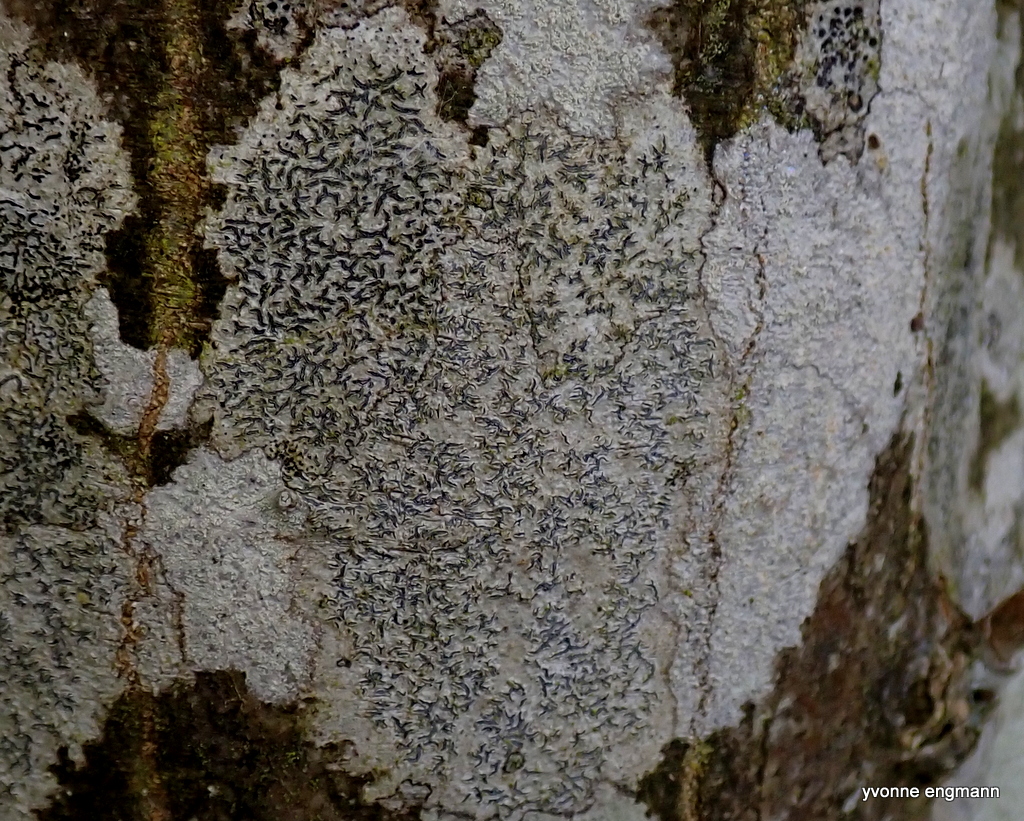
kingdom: Fungi
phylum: Ascomycota
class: Lecanoromycetes
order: Ostropales
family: Graphidaceae
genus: Graphis
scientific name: Graphis scripta
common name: almindelig skriftlav
